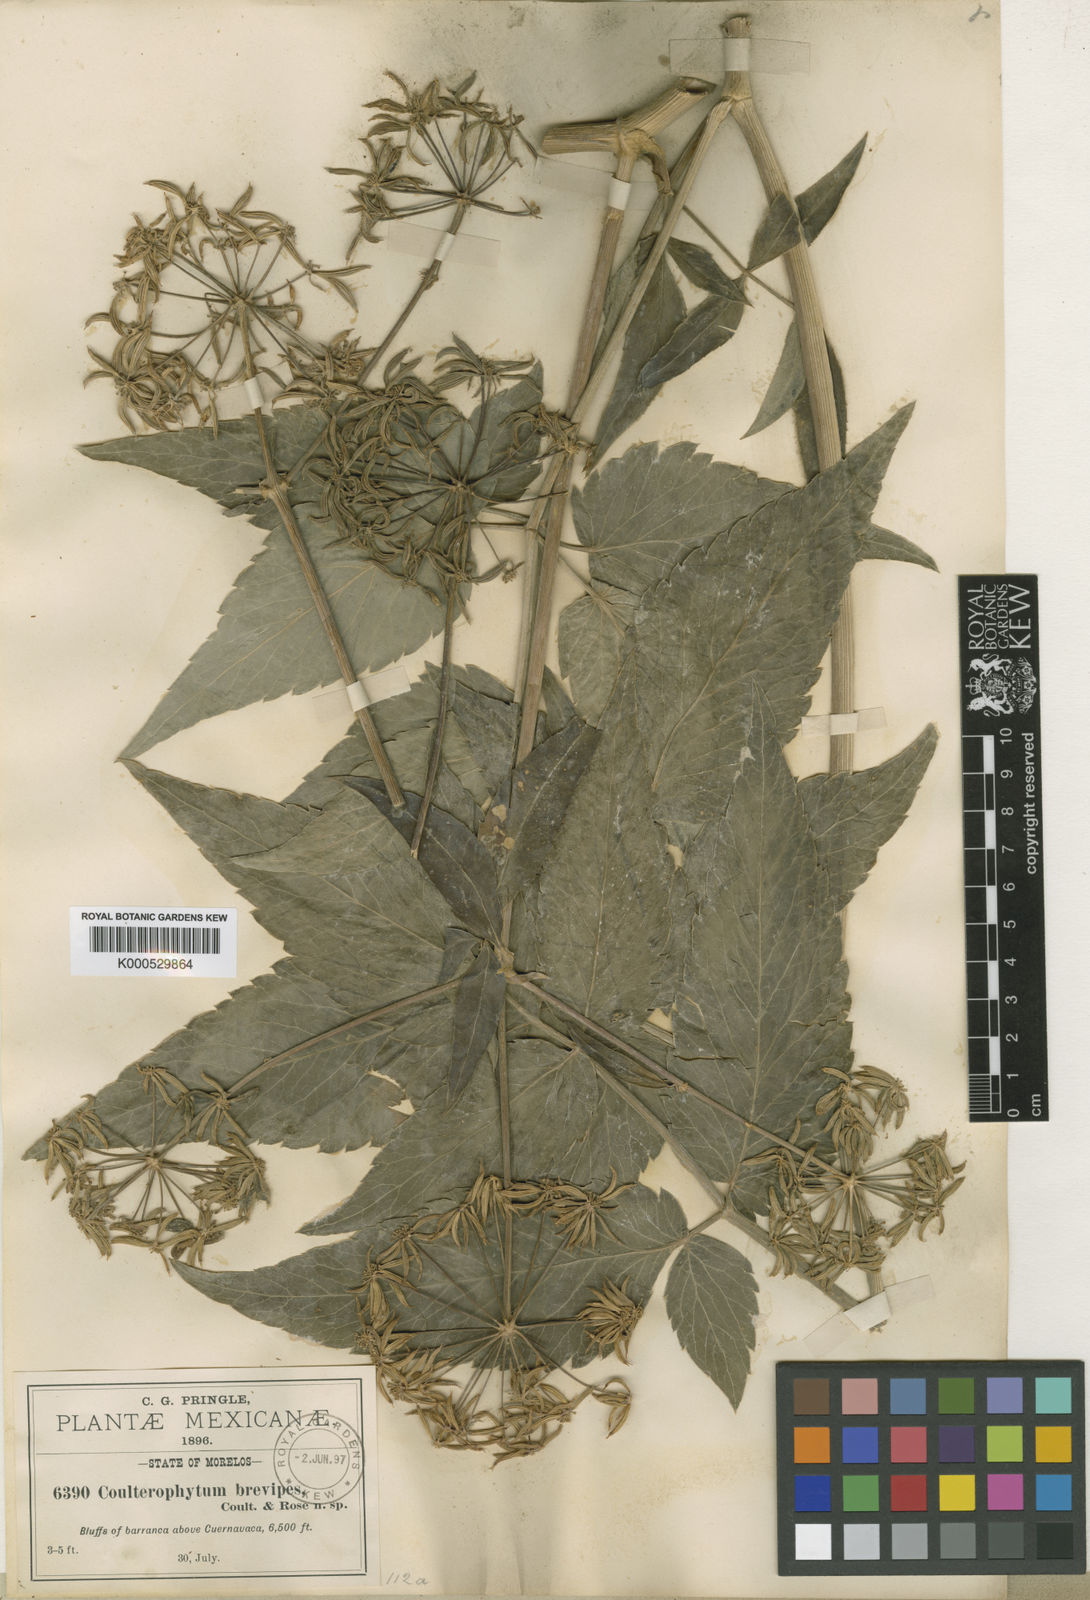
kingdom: Plantae
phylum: Tracheophyta
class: Magnoliopsida
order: Apiales
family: Apiaceae
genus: Arracacia
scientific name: Arracacia atropurpurea
